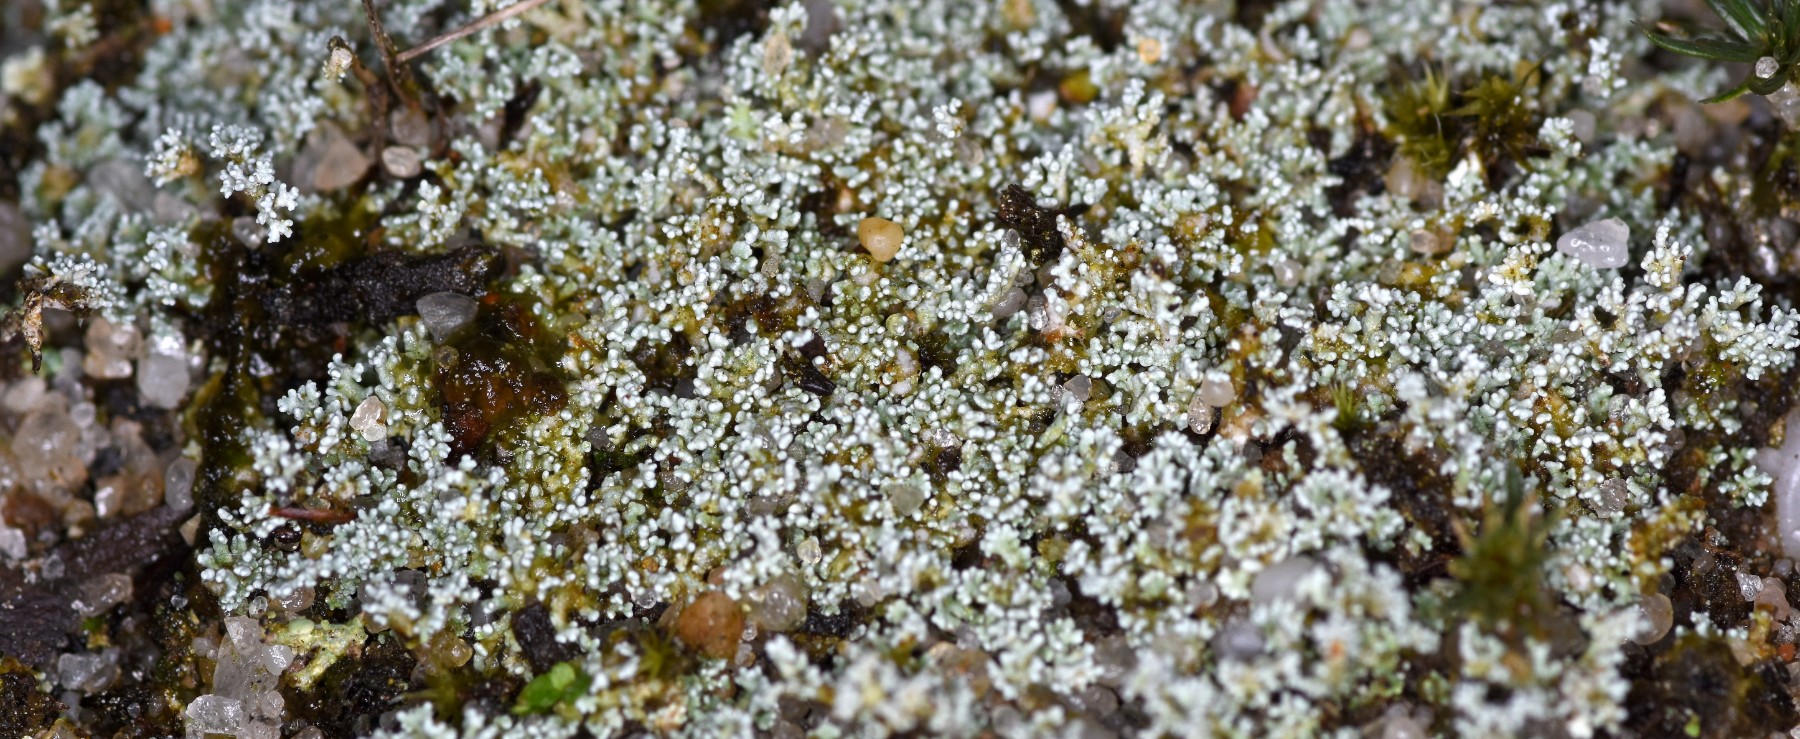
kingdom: Fungi
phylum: Ascomycota
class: Lecanoromycetes
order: Lecanorales
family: Stereocaulaceae
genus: Stereocaulon
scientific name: Stereocaulon condensatum
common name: lav korallav
